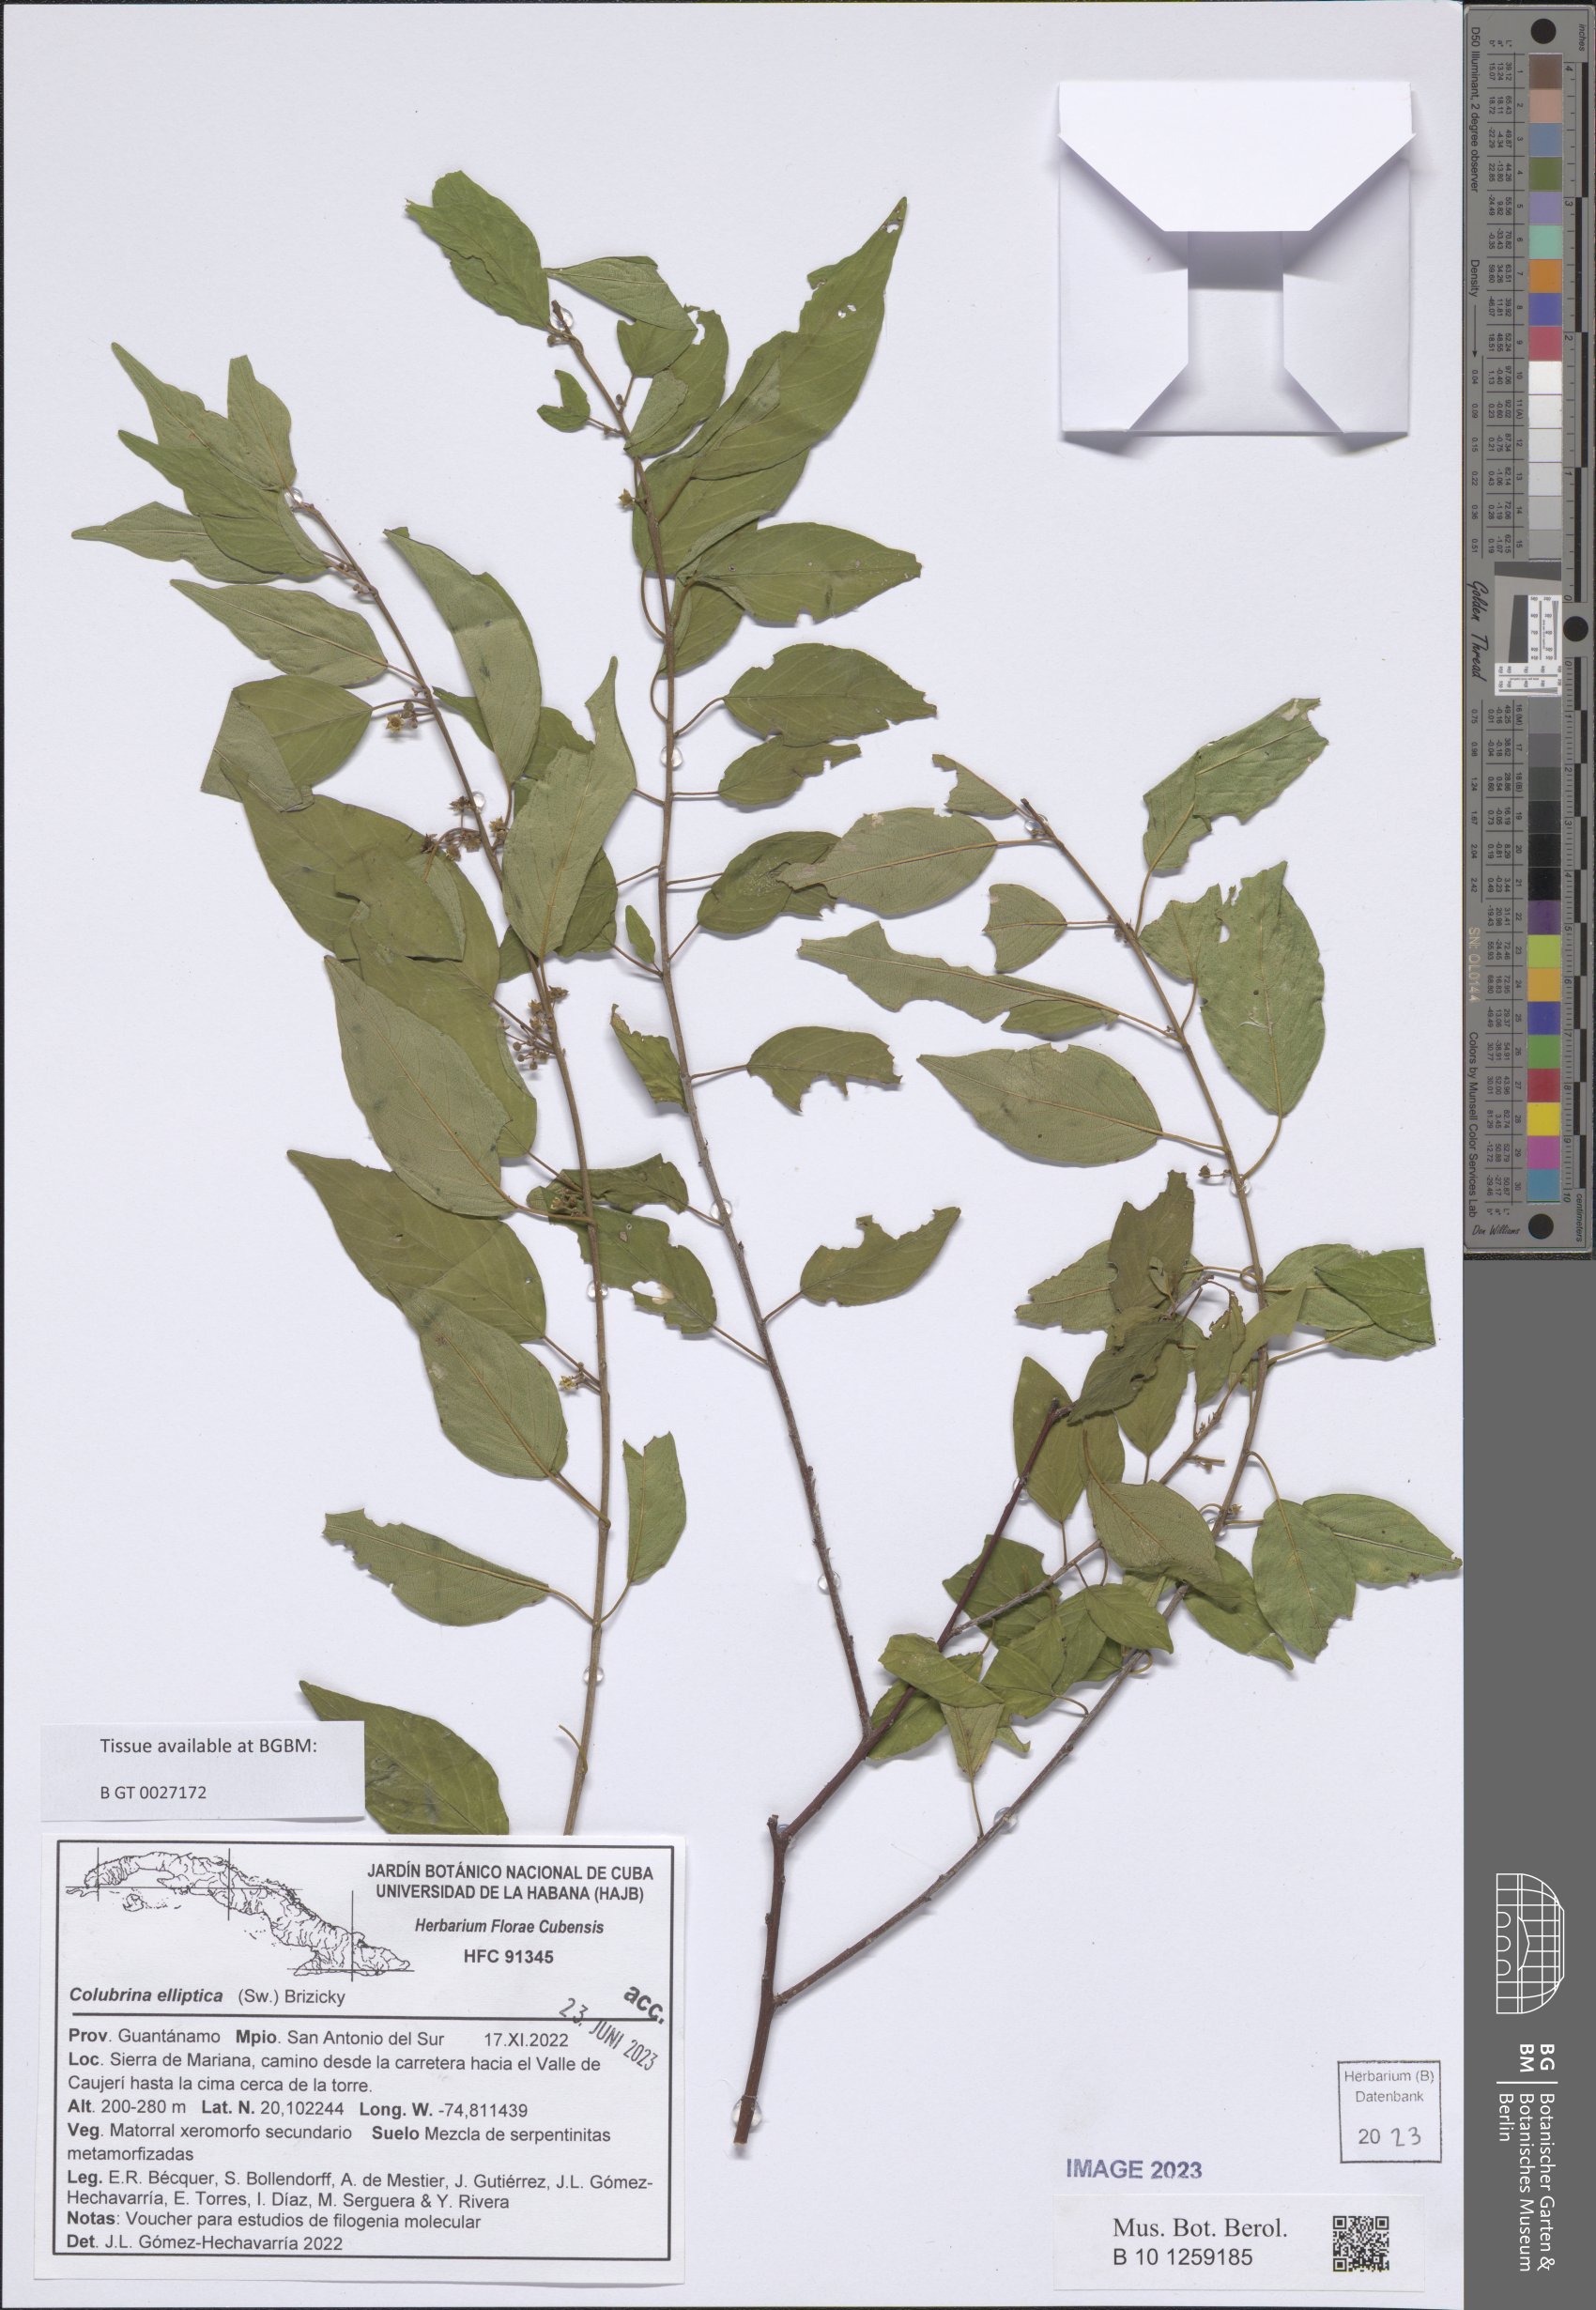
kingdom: Plantae
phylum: Tracheophyta
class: Magnoliopsida
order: Rosales
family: Rhamnaceae
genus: Colubrina
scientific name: Colubrina elliptica
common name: Soldierwood
